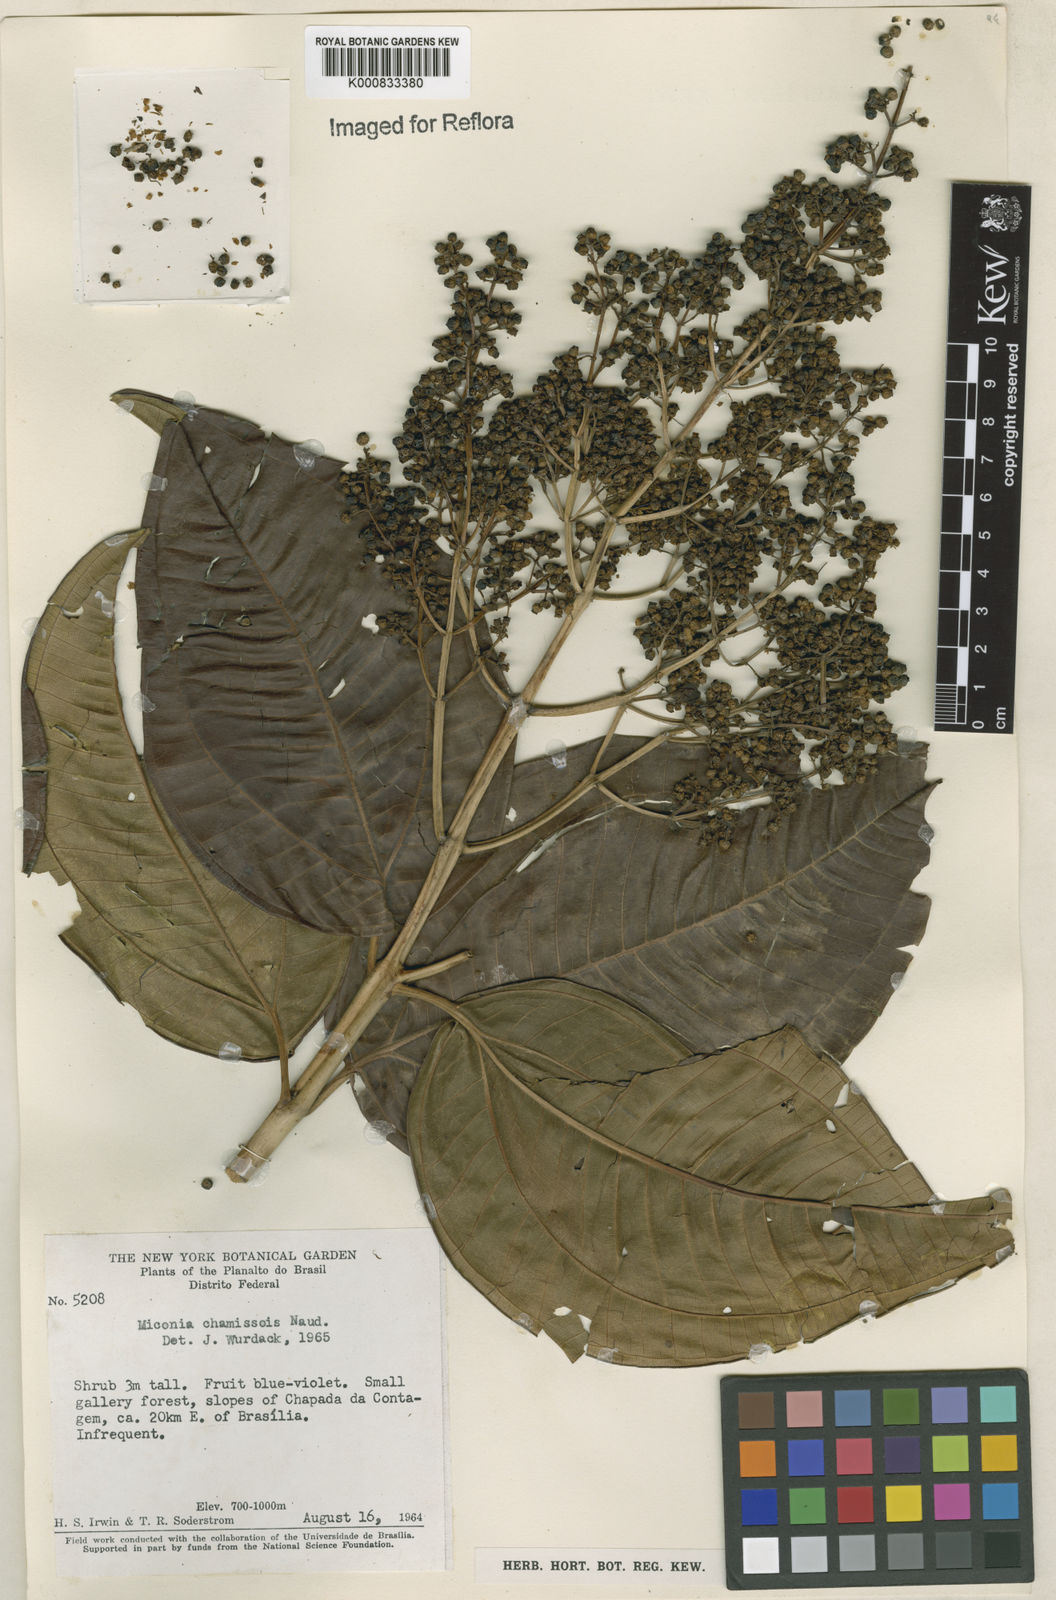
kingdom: Plantae
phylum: Tracheophyta
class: Magnoliopsida
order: Myrtales
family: Melastomataceae
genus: Miconia
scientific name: Miconia chamissois
